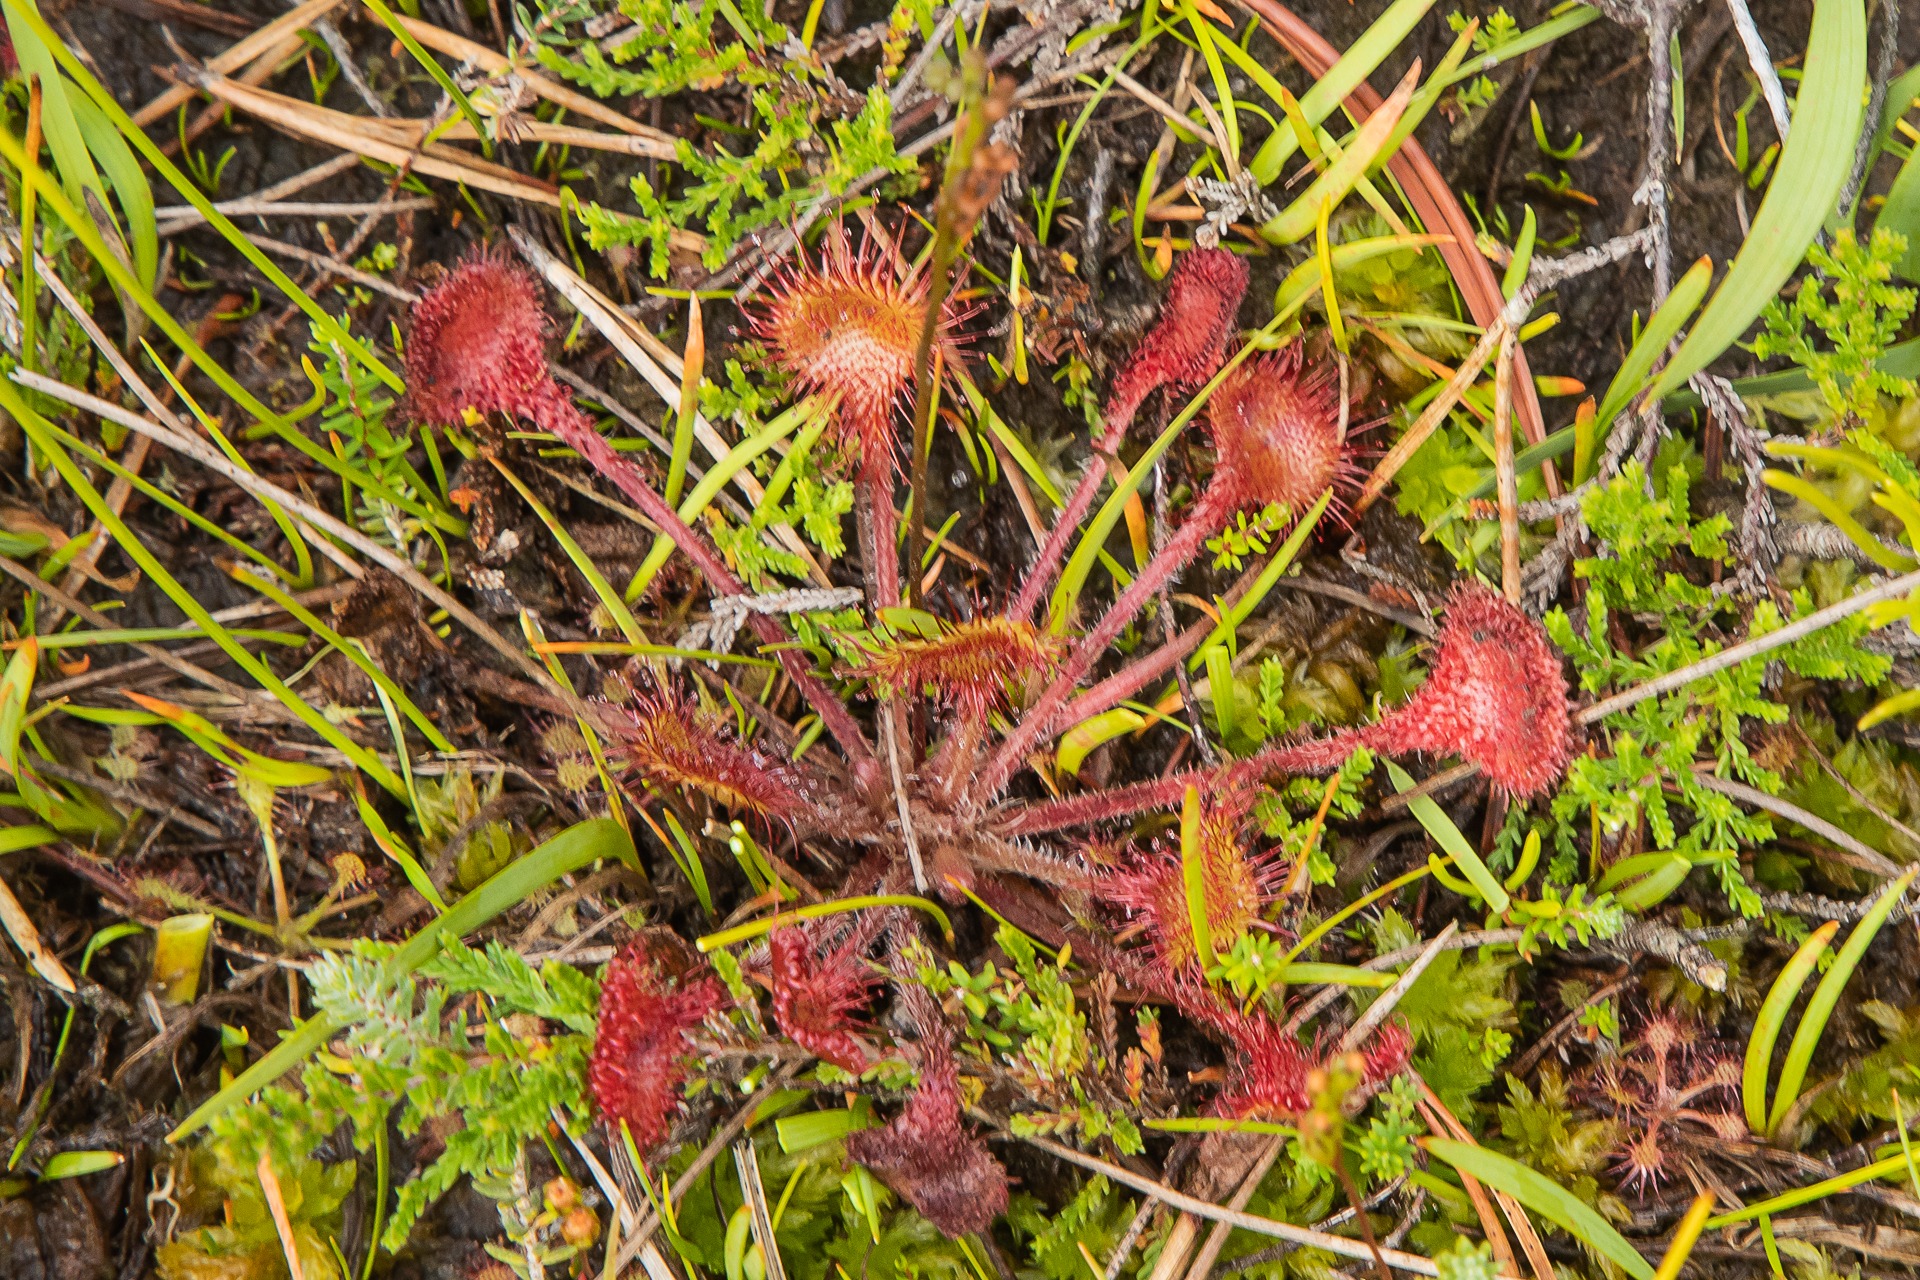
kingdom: Plantae
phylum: Tracheophyta
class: Magnoliopsida
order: Caryophyllales
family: Droseraceae
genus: Drosera
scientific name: Drosera rotundifolia
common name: Rundbladet soldug
